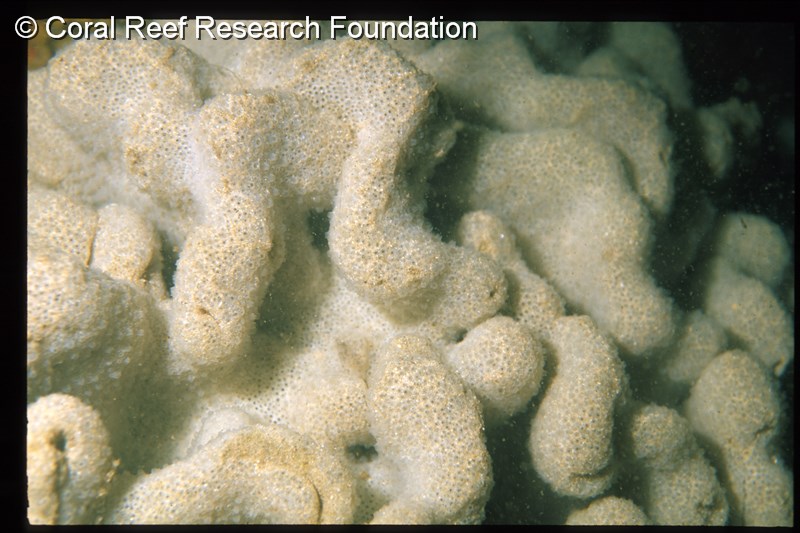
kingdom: Animalia
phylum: Chordata
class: Ascidiacea
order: Aplousobranchia
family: Polyclinidae
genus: Polyclinum
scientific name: Polyclinum isipingense
